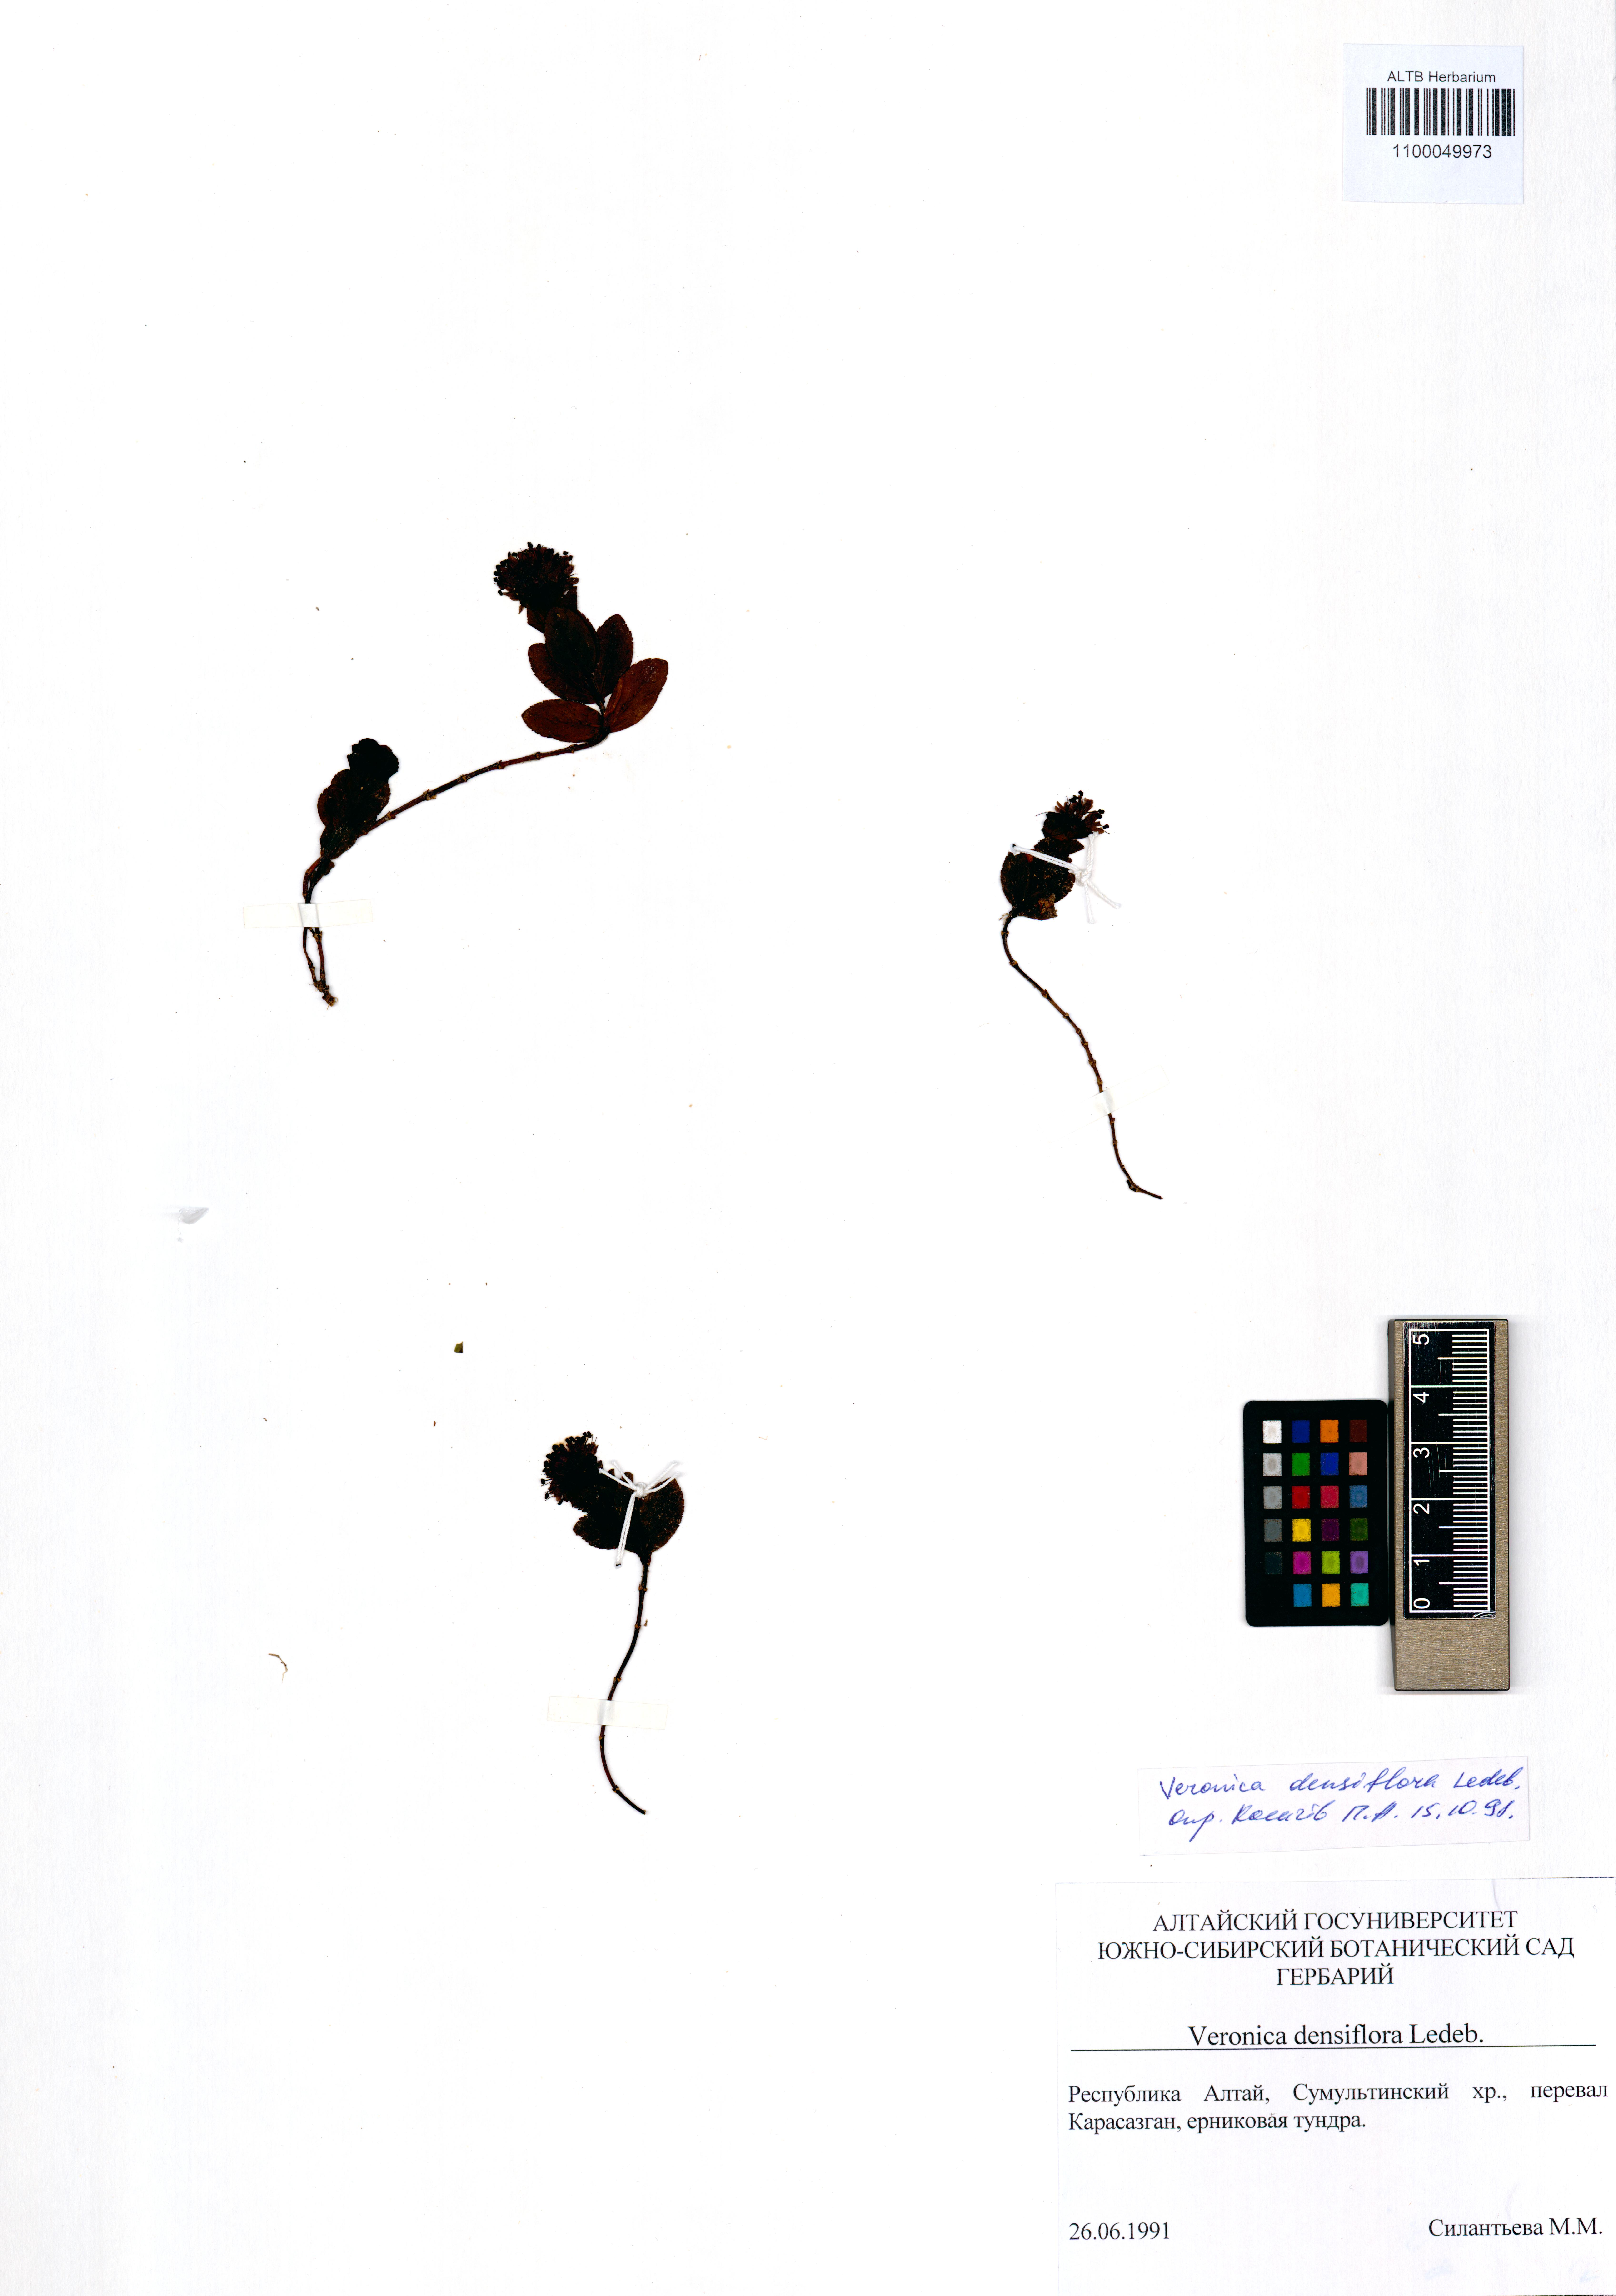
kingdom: Plantae
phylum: Tracheophyta
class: Magnoliopsida
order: Lamiales
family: Plantaginaceae
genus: Veronica
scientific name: Veronica densiflora
